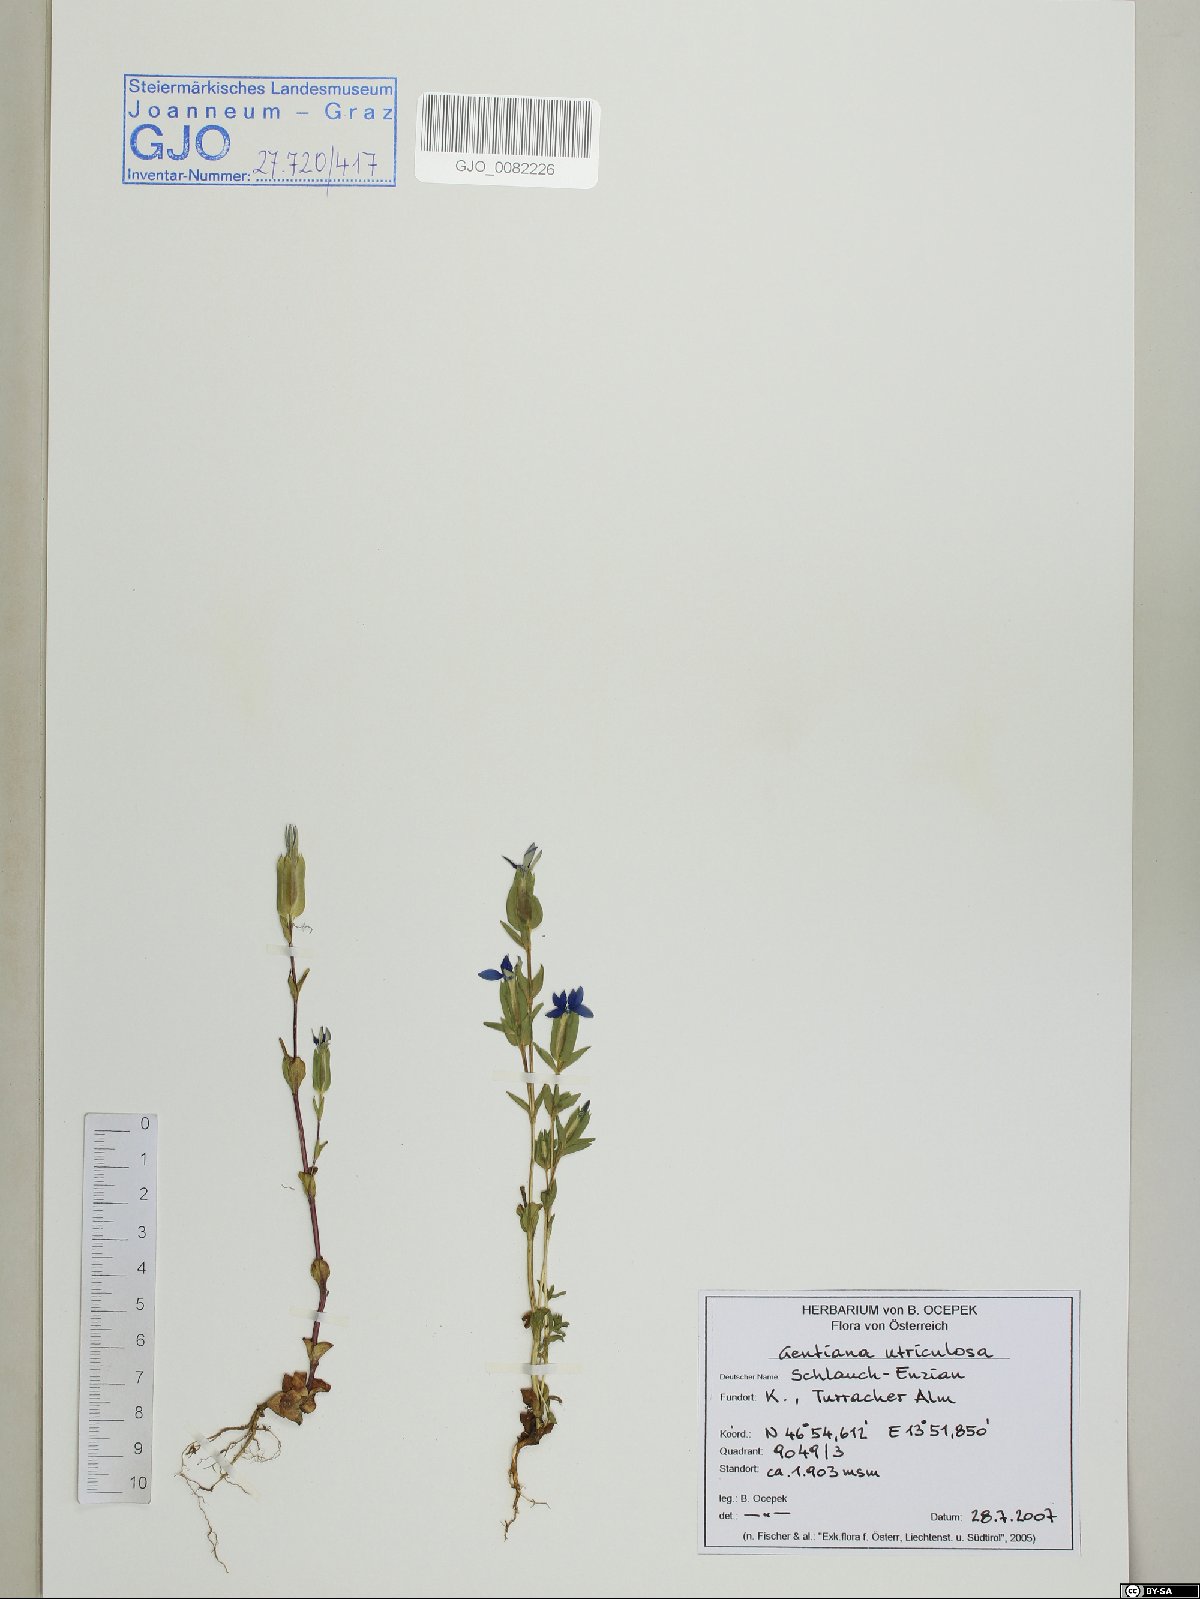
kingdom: Plantae
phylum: Tracheophyta
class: Magnoliopsida
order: Gentianales
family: Gentianaceae
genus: Gentiana
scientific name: Gentiana utriculosa
